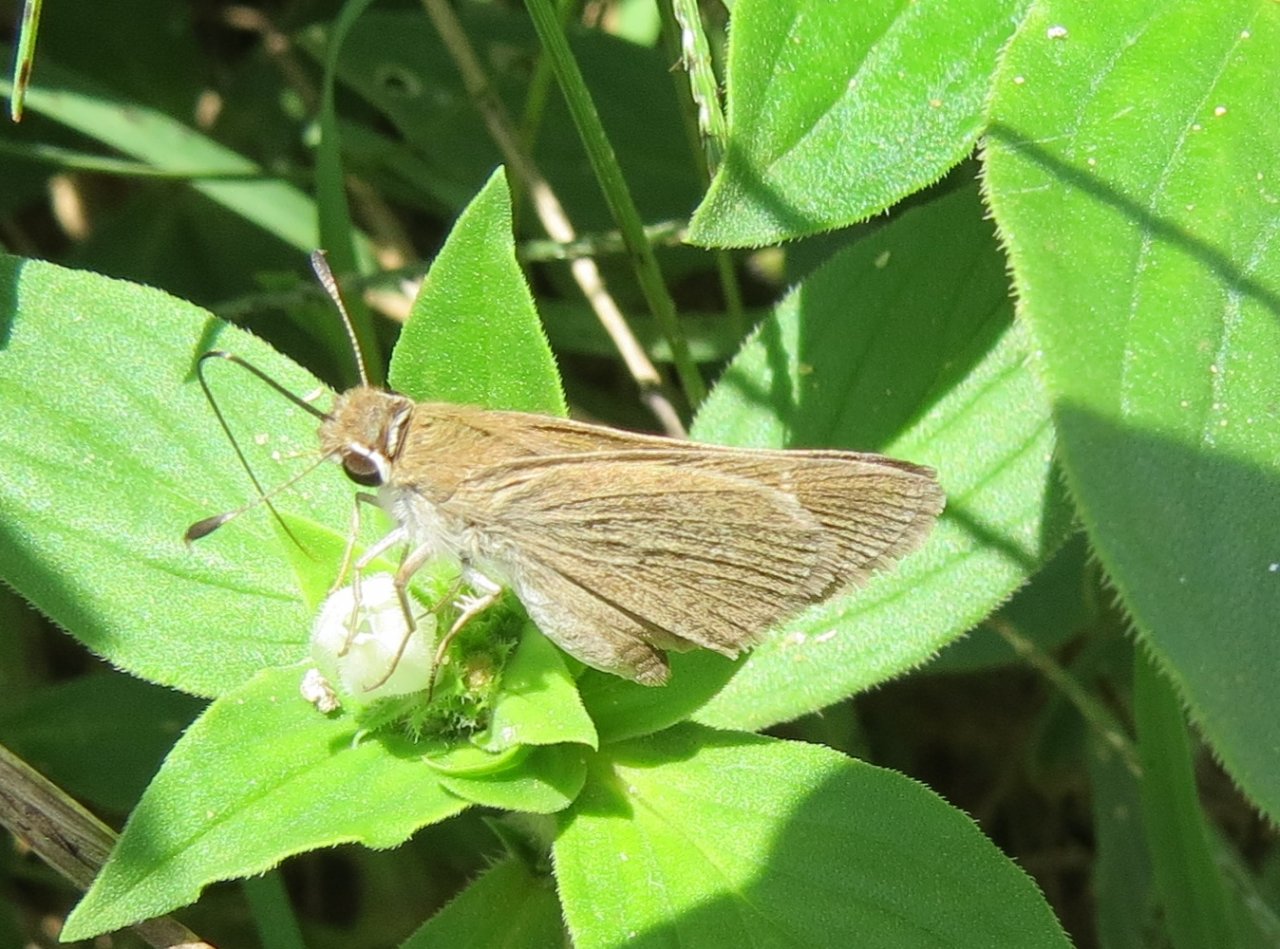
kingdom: Animalia
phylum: Arthropoda
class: Insecta
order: Lepidoptera
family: Hesperiidae
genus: Lerodea
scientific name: Lerodea eufala
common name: Eufala Skipper
